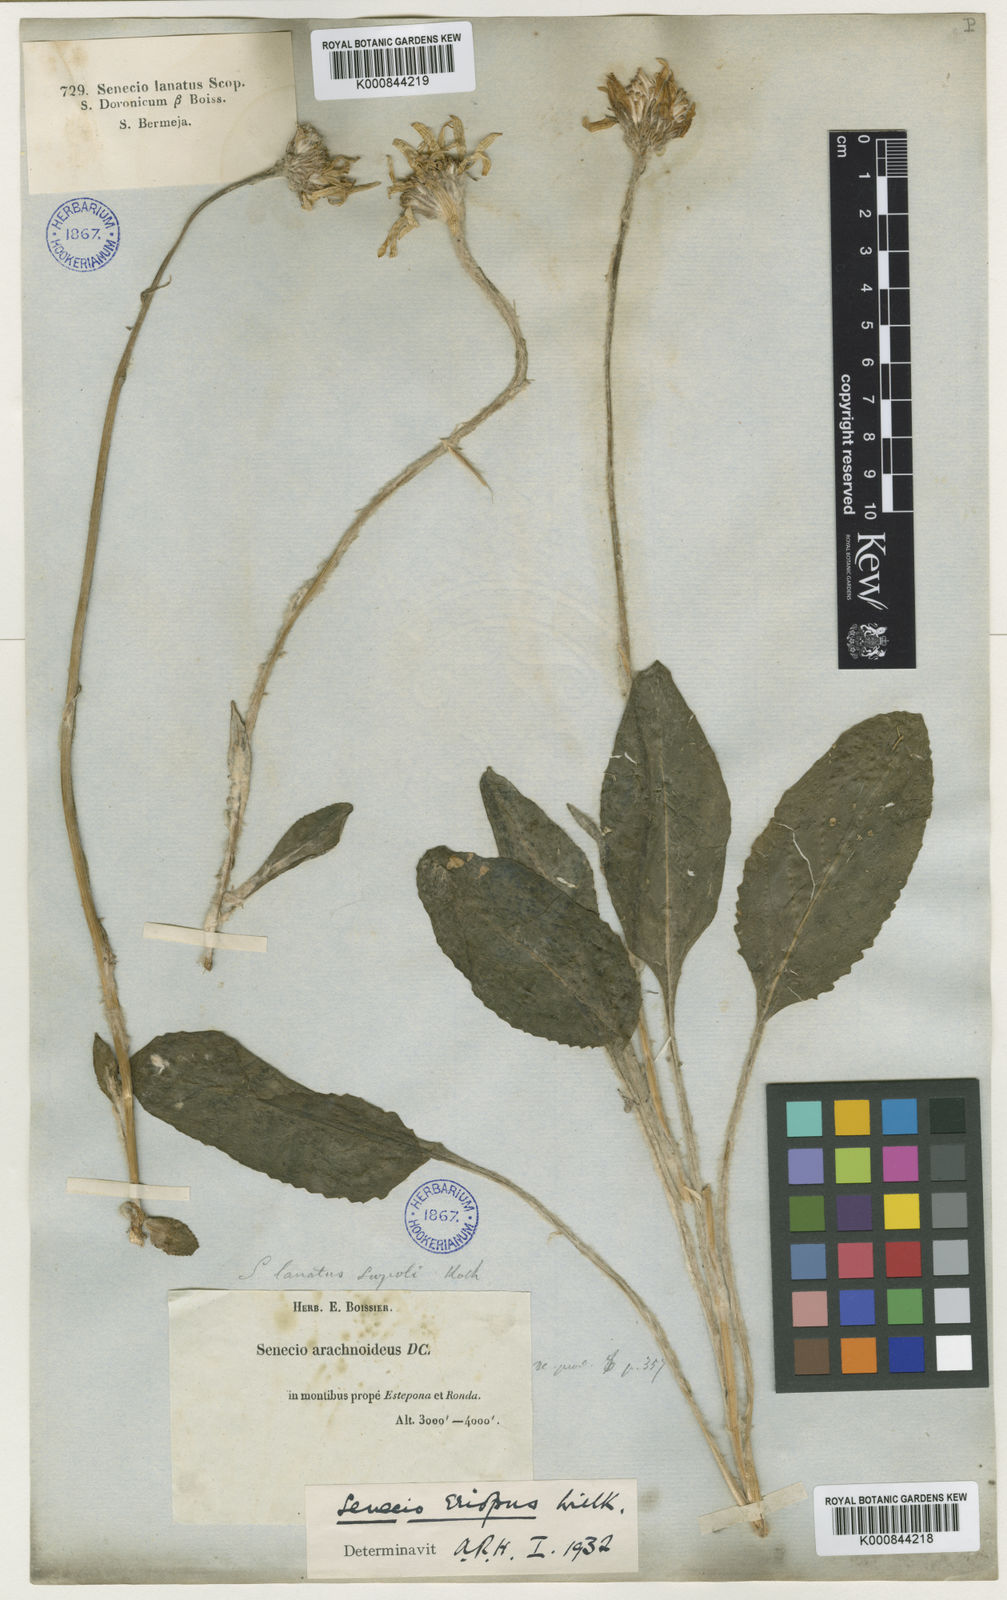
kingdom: Plantae
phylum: Tracheophyta
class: Magnoliopsida
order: Asterales
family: Asteraceae
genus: Senecio
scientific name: Senecio eriopus
